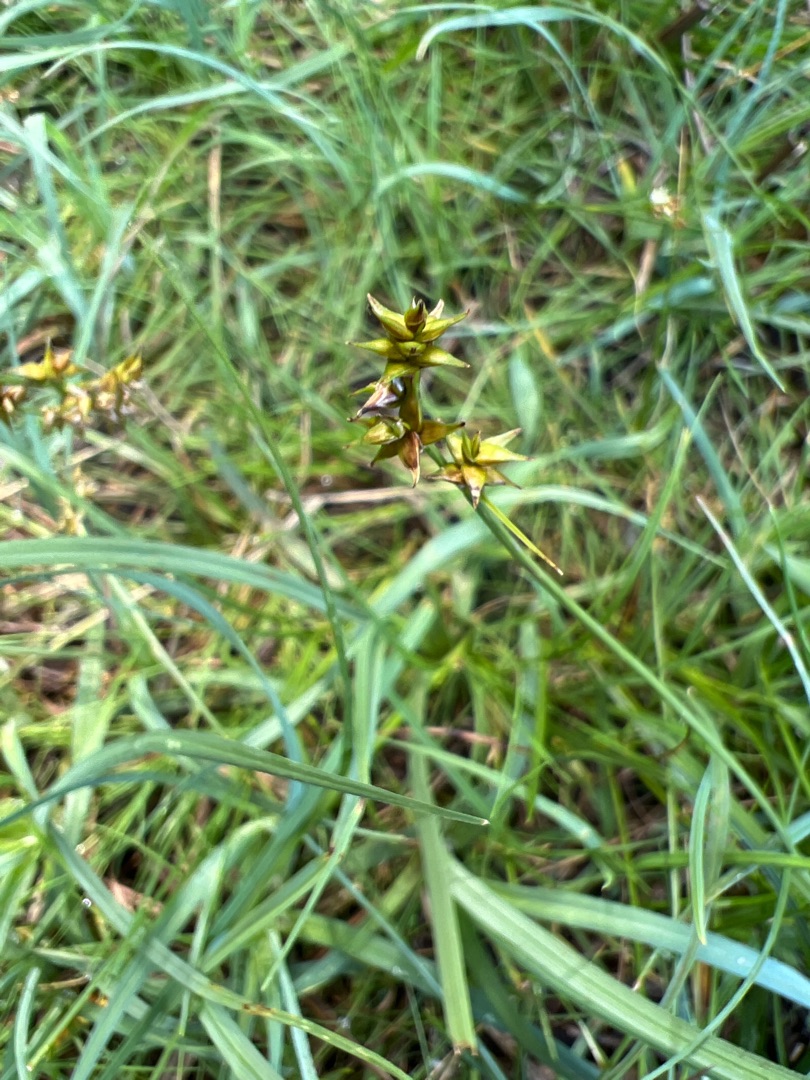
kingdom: Plantae
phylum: Tracheophyta
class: Liliopsida
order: Poales
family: Cyperaceae
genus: Carex
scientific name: Carex echinata
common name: Stjerne-star
